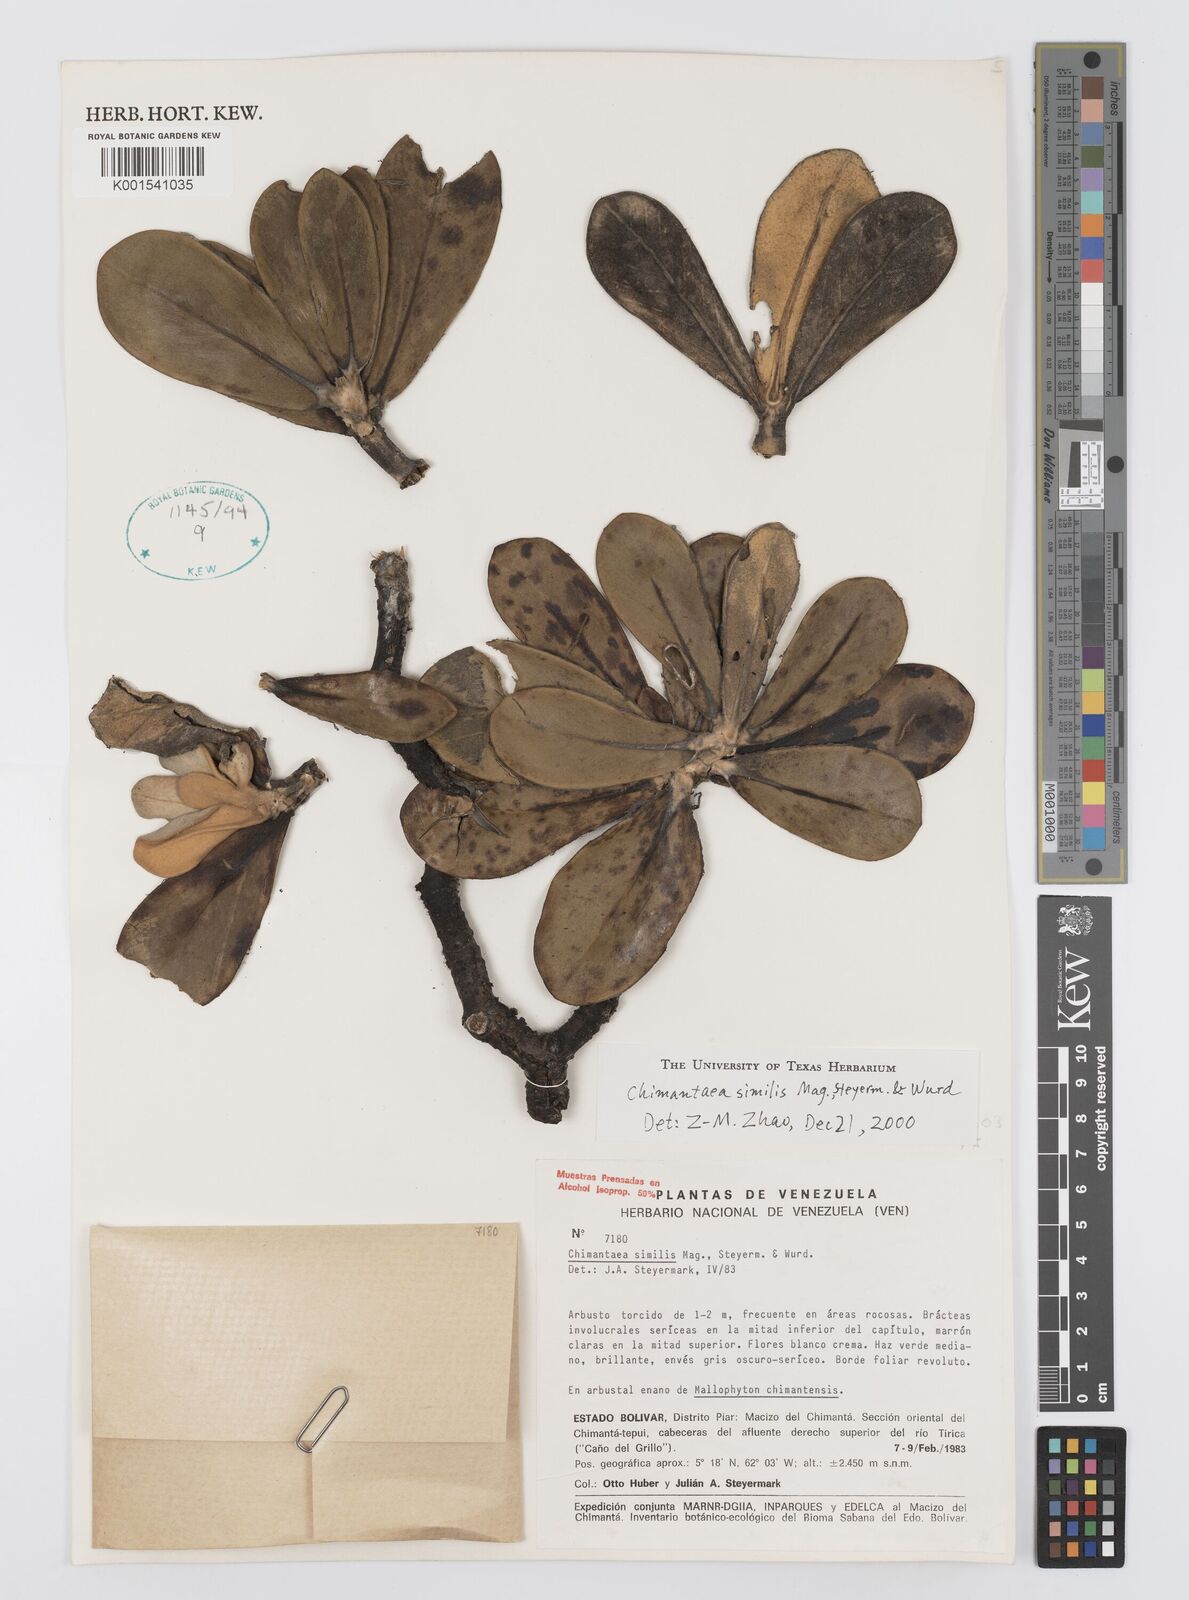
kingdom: Plantae
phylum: Tracheophyta
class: Magnoliopsida
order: Asterales
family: Asteraceae
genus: Chimantaea
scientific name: Chimantaea cinerea
